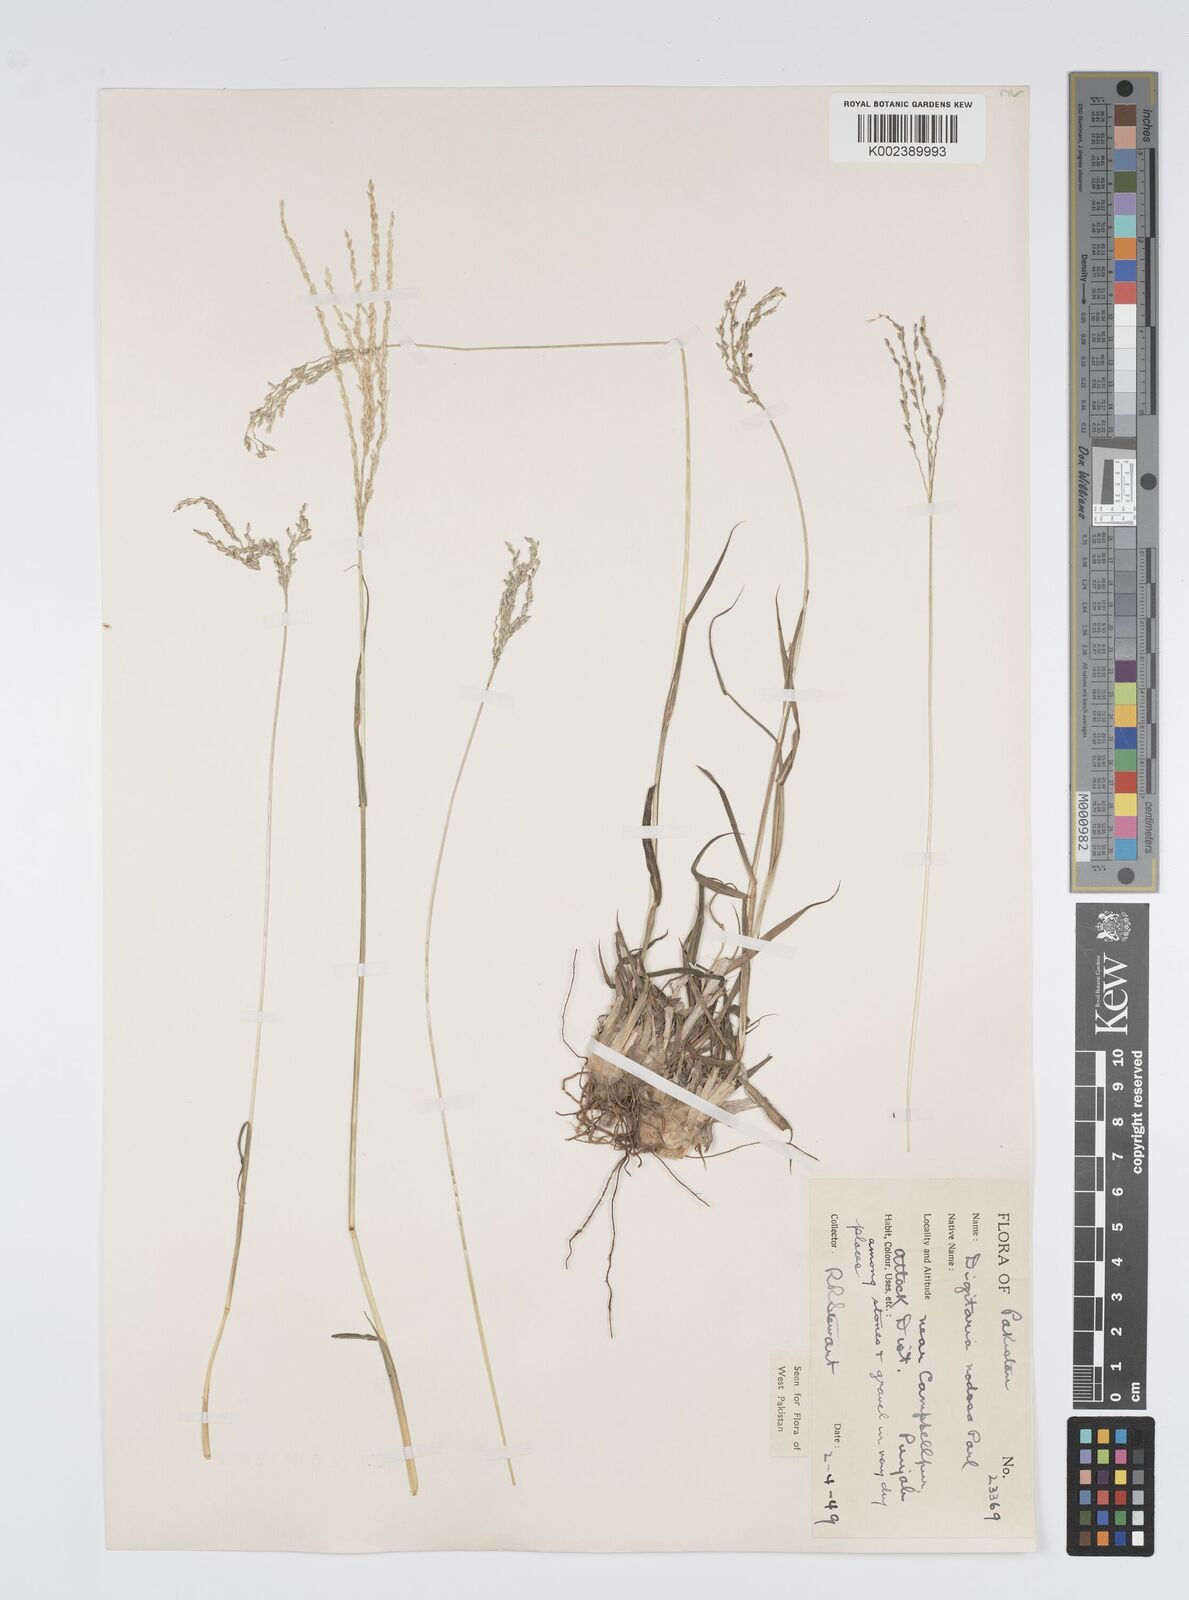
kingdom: Plantae
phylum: Tracheophyta
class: Liliopsida
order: Poales
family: Poaceae
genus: Digitaria
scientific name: Digitaria nodosa
